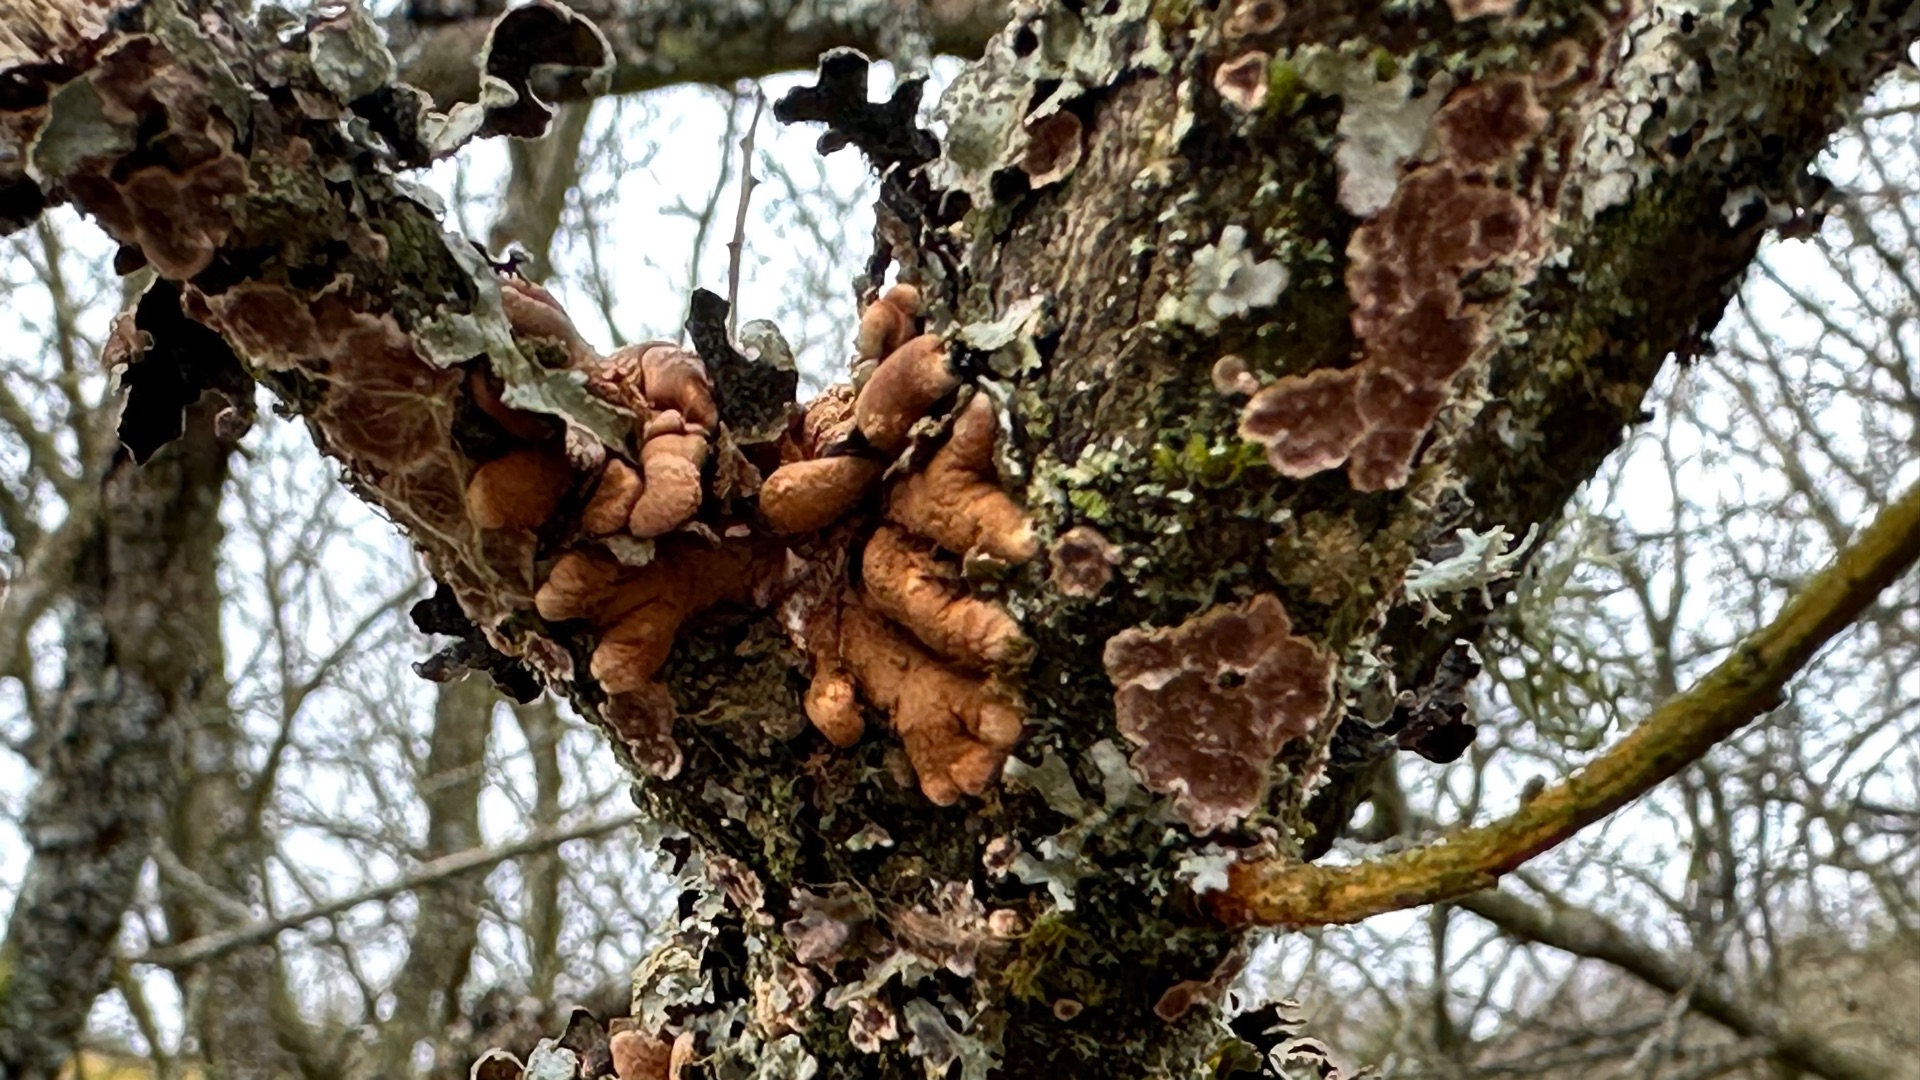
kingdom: Fungi
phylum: Ascomycota
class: Sordariomycetes
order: Hypocreales
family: Hypocreaceae
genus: Hypocreopsis
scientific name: Hypocreopsis lichenoides
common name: Pilfinger
